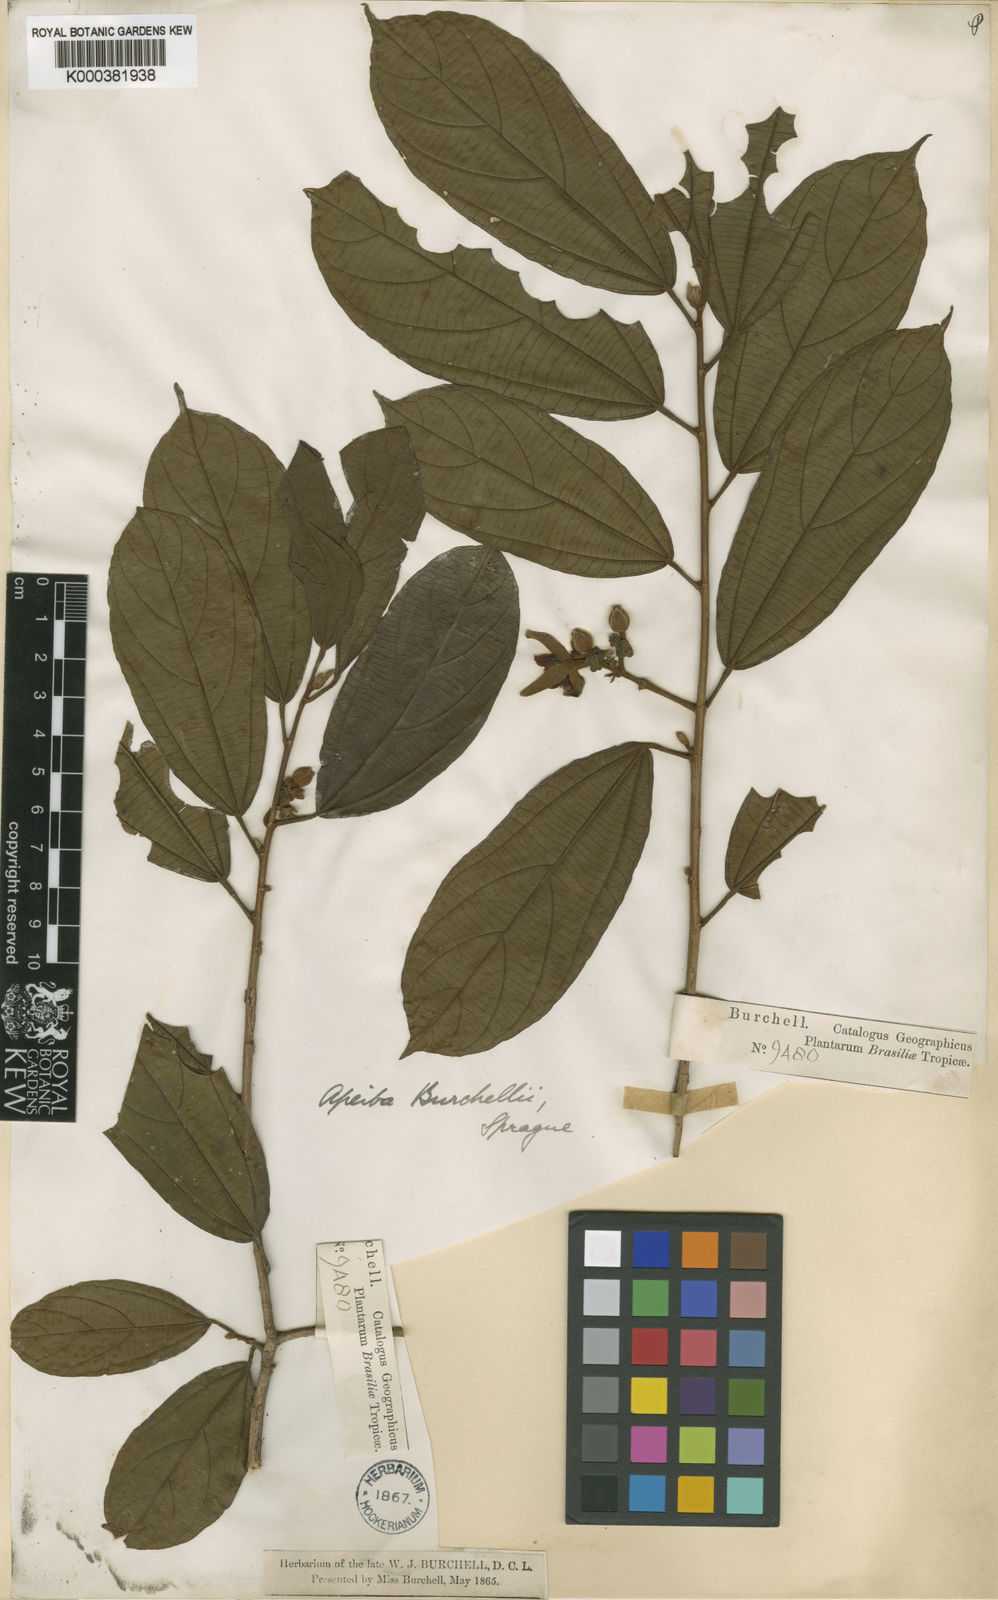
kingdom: Plantae
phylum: Tracheophyta
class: Magnoliopsida
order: Malvales
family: Malvaceae
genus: Apeiba
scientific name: Apeiba glabra
